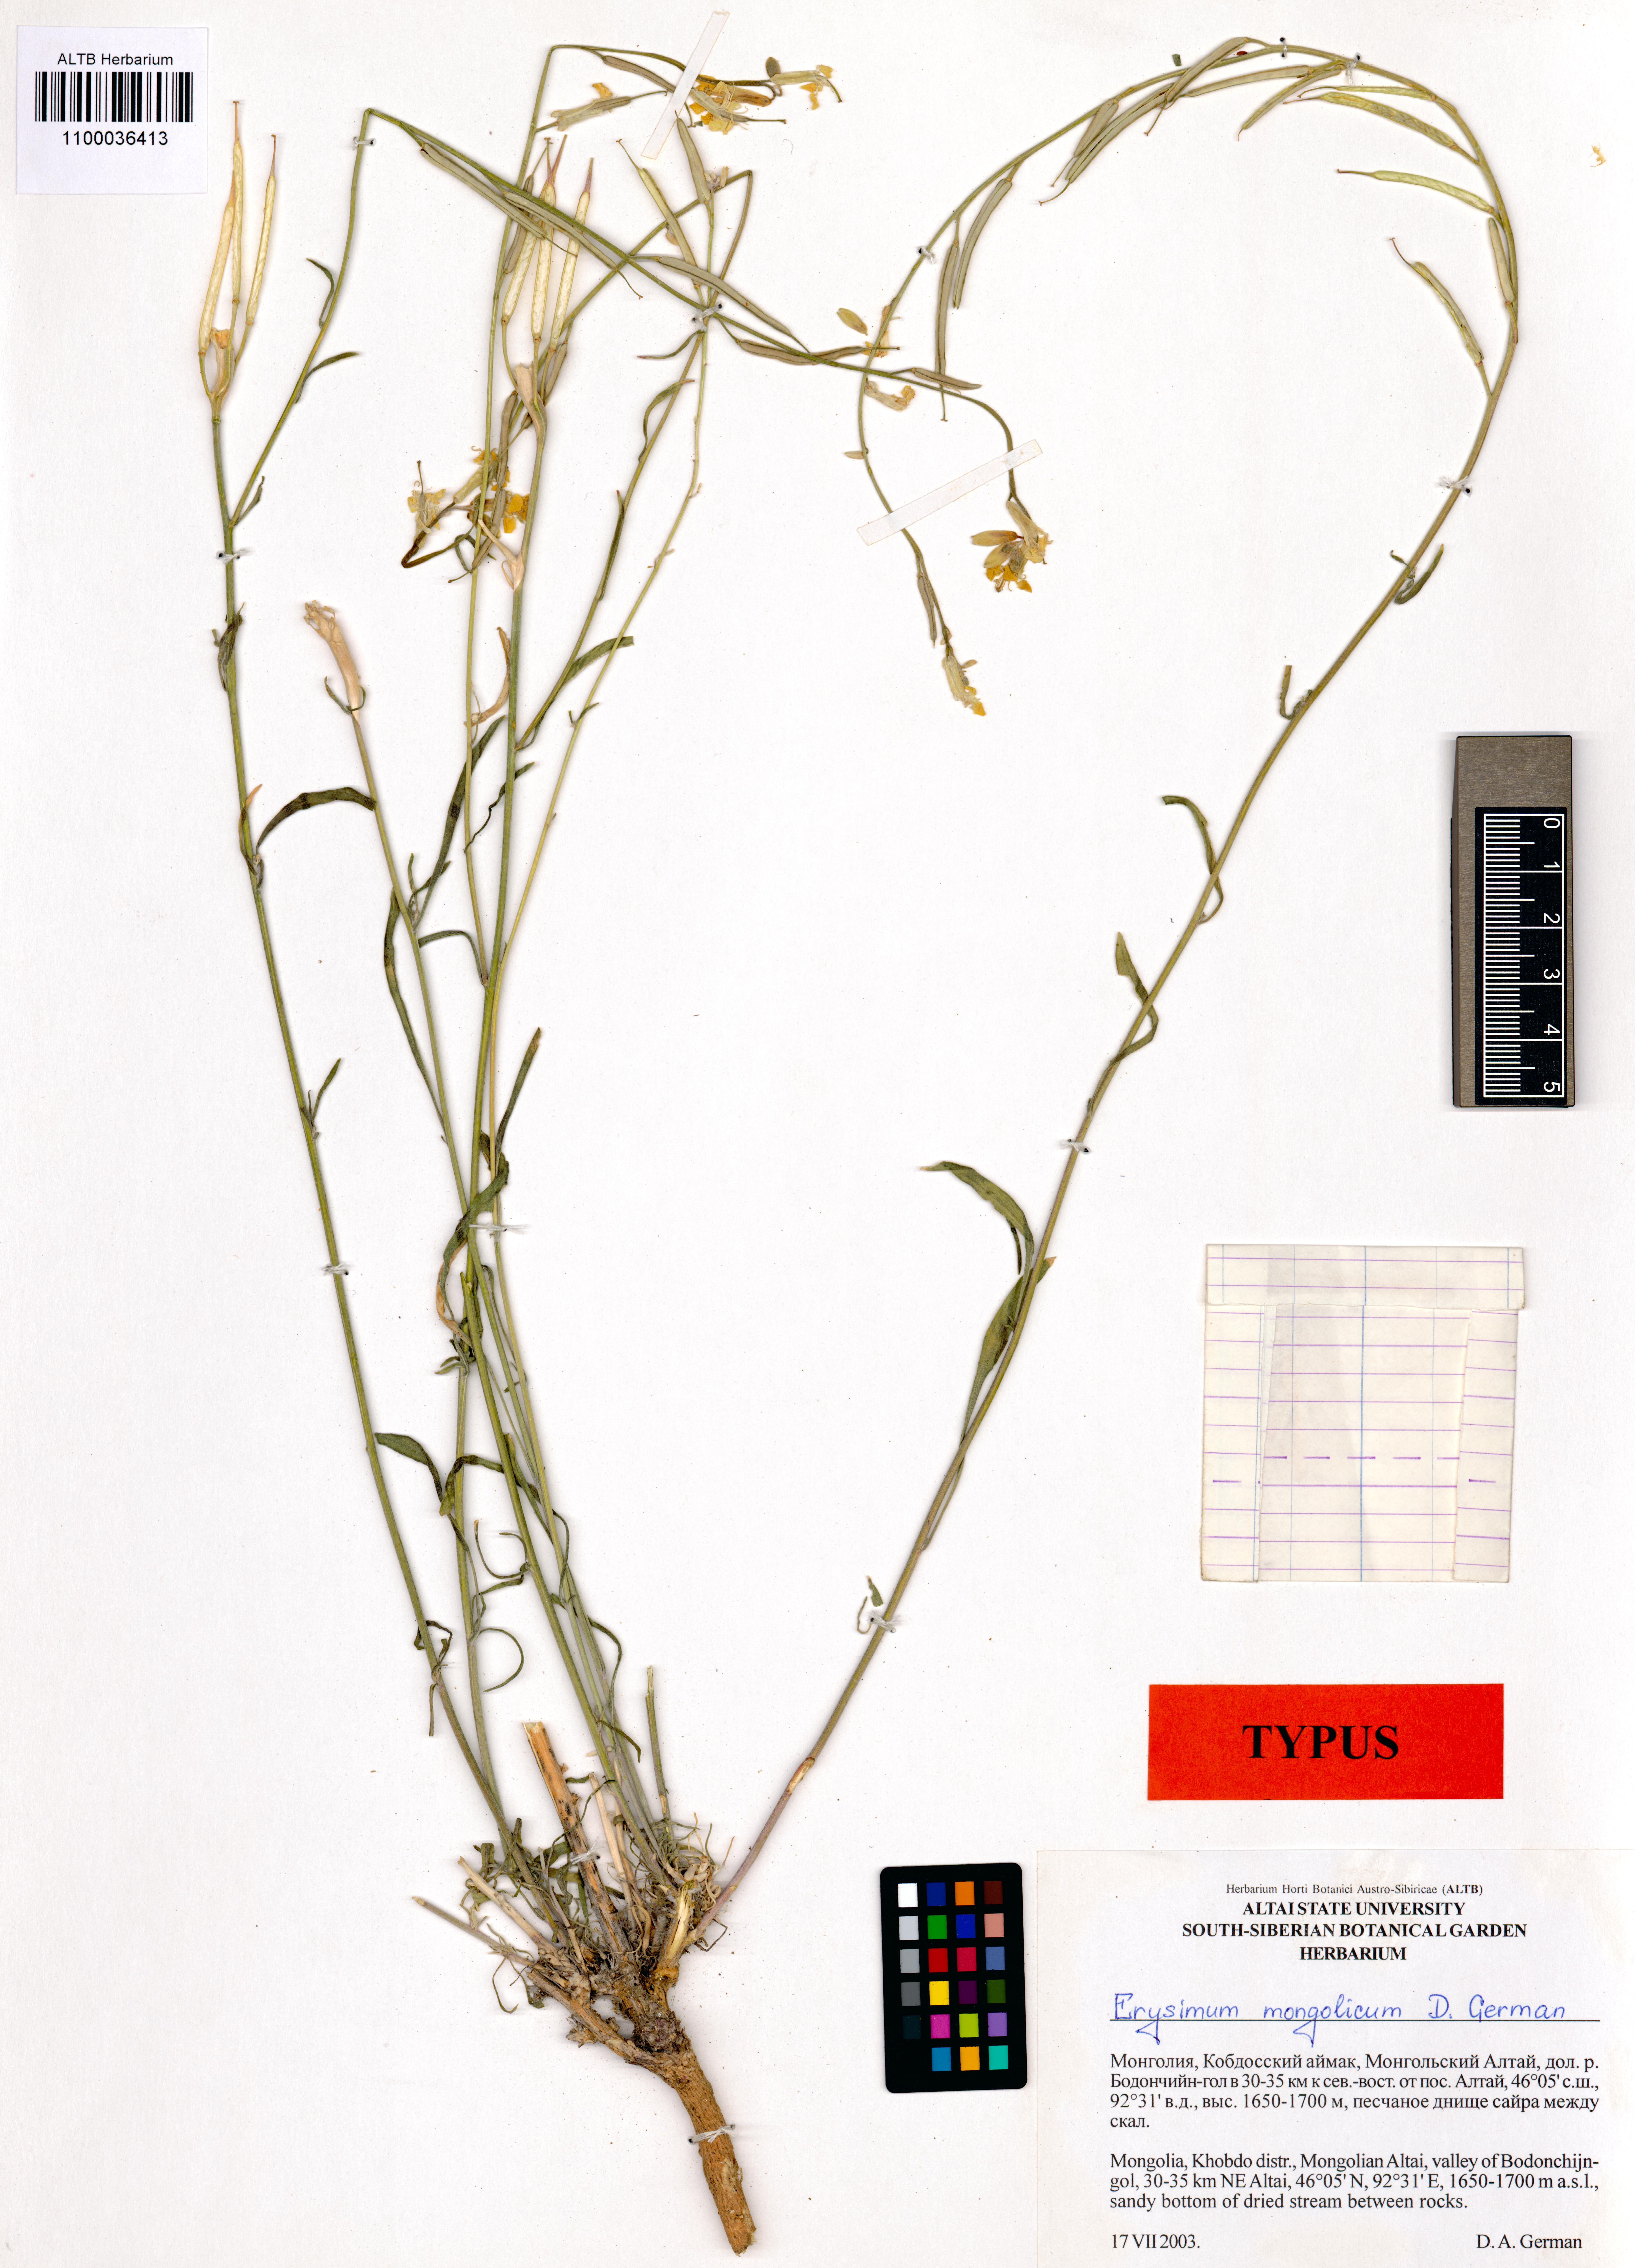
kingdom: Plantae
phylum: Tracheophyta
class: Magnoliopsida
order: Brassicales
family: Brassicaceae
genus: Erysimum
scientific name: Erysimum mongolicum
